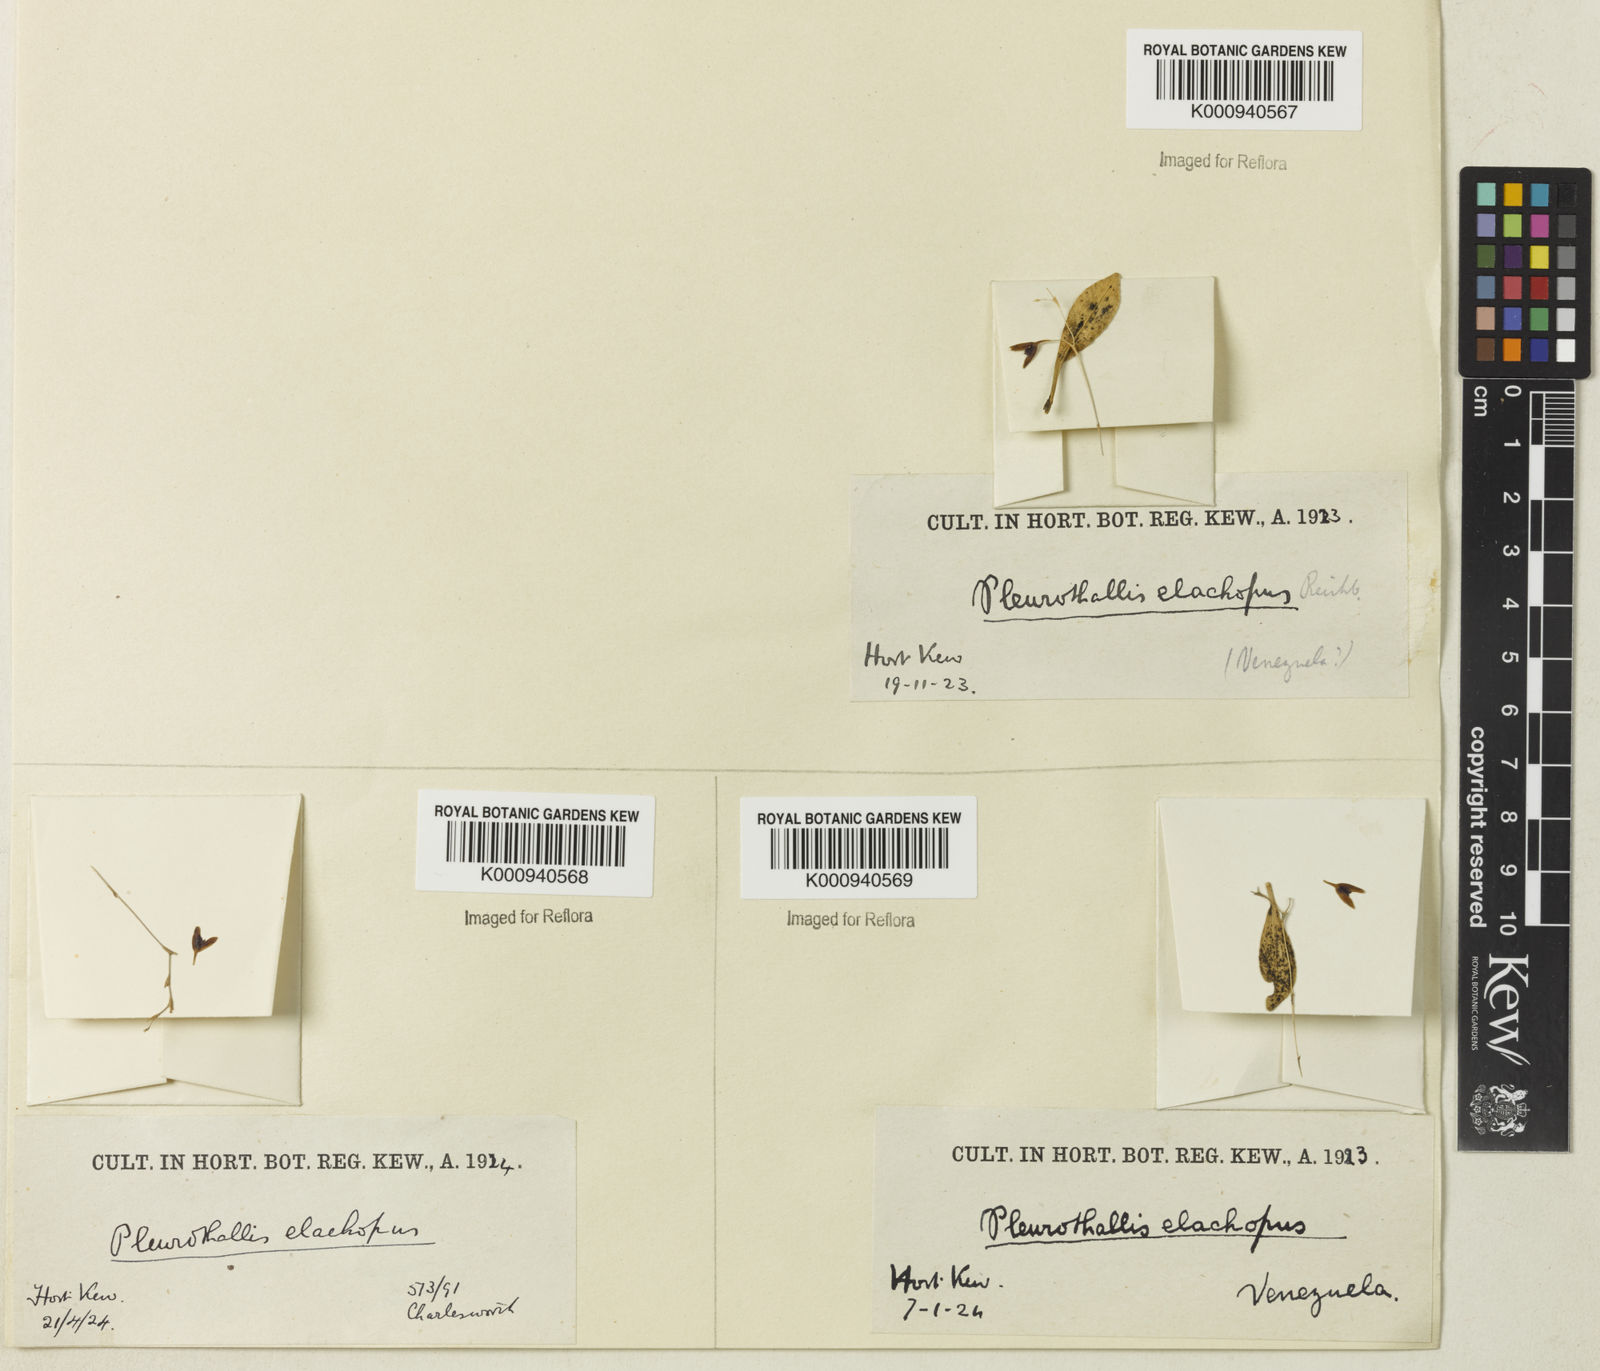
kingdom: Plantae
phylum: Tracheophyta
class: Liliopsida
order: Asparagales
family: Orchidaceae
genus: Stelis
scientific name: Stelis
